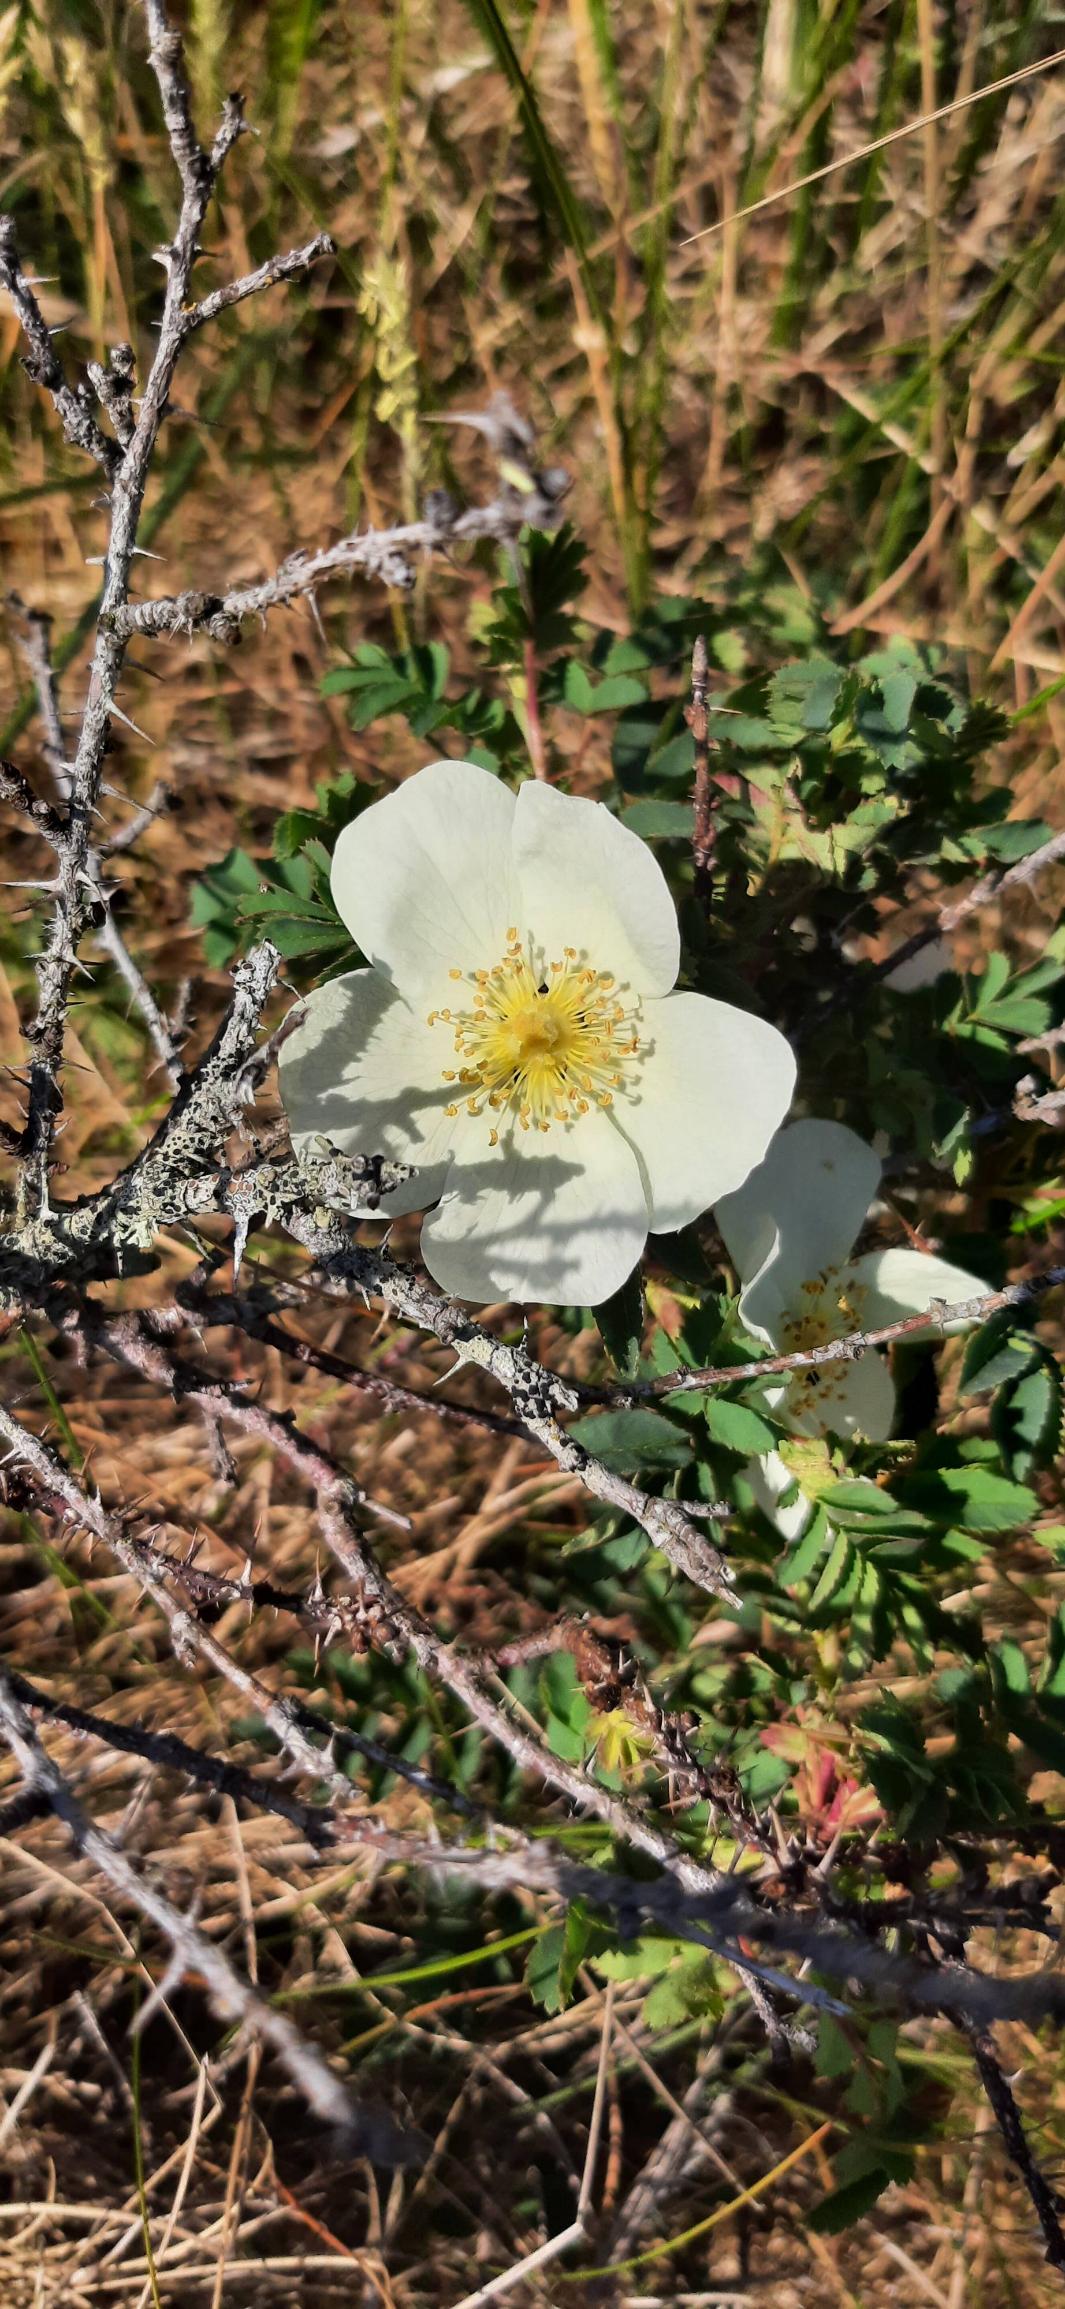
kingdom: Plantae
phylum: Tracheophyta
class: Magnoliopsida
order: Rosales
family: Rosaceae
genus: Rosa
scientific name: Rosa spinosissima
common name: Klit-rose
